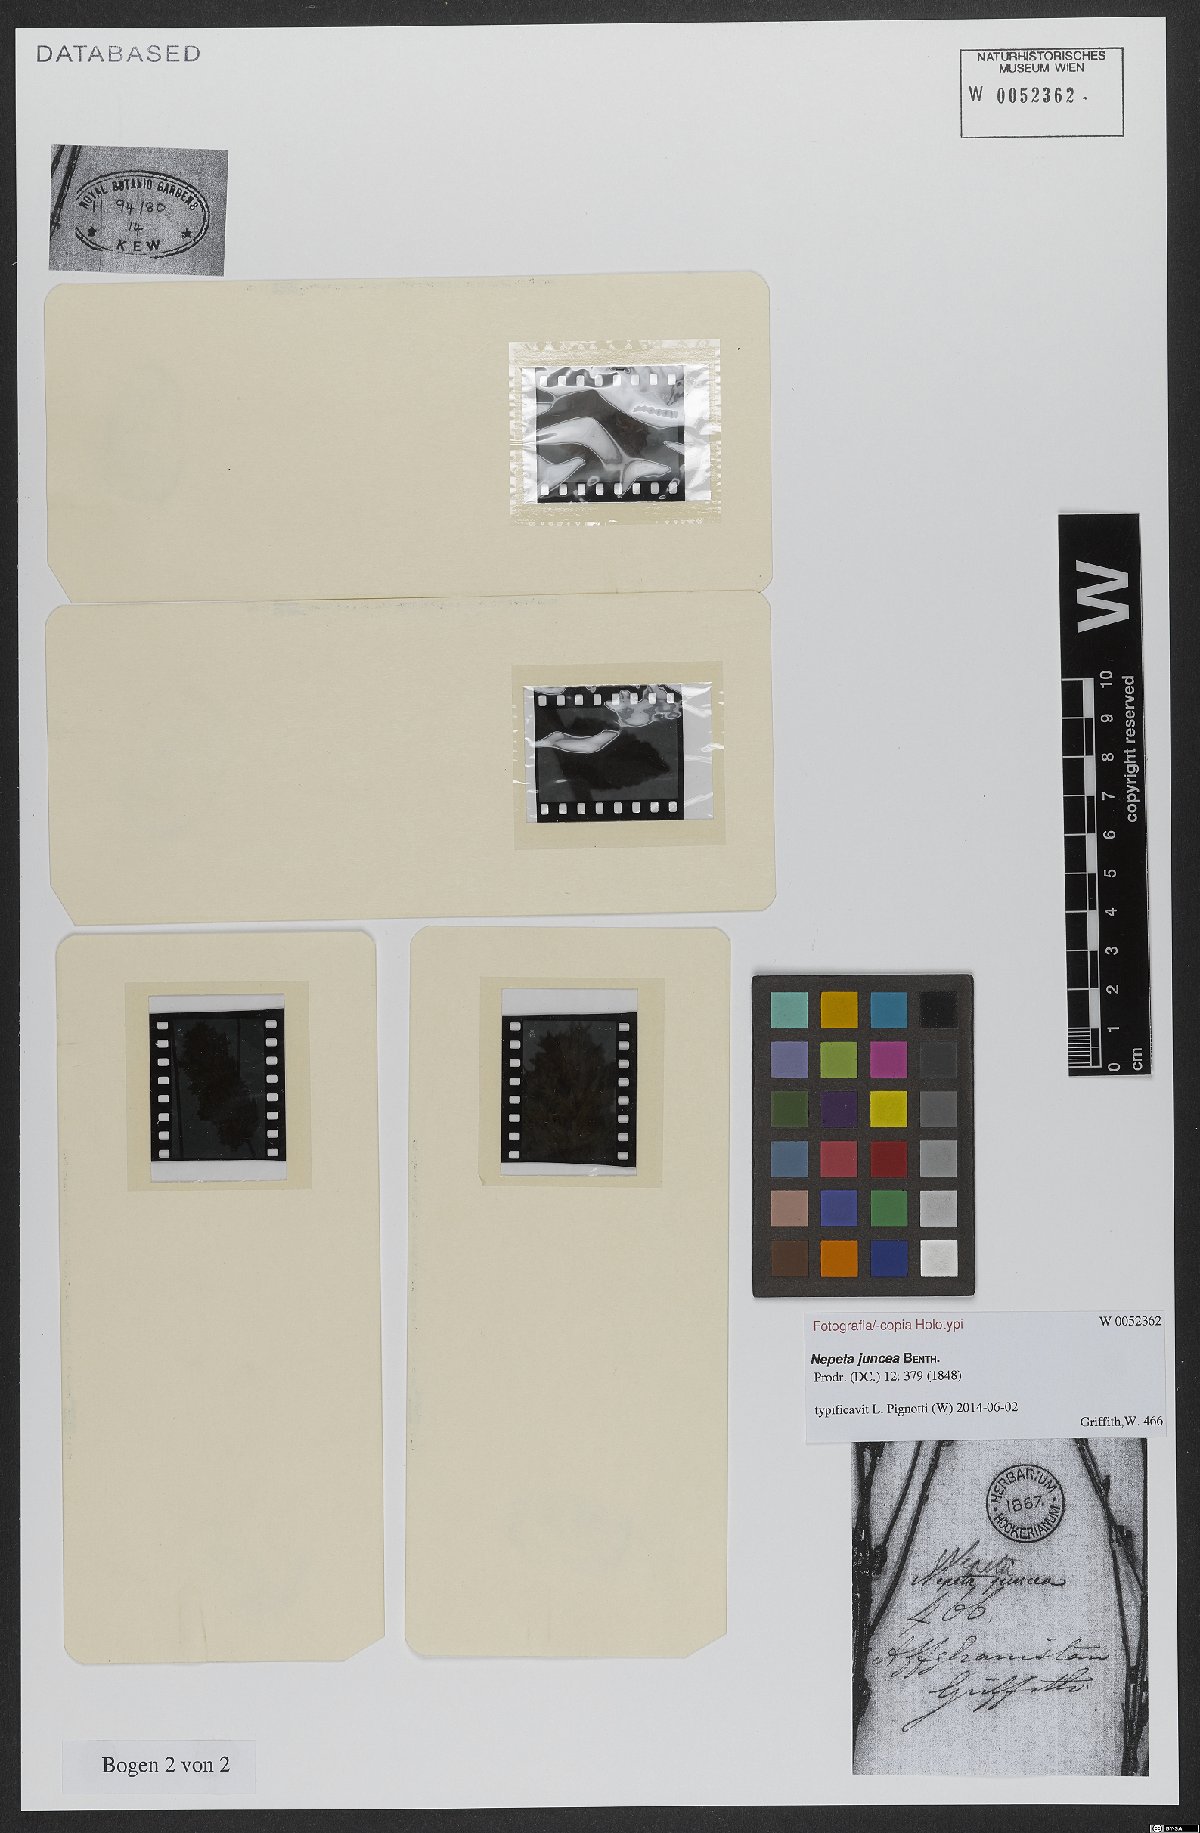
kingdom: Plantae
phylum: Tracheophyta
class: Magnoliopsida
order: Lamiales
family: Lamiaceae
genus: Nepeta
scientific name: Nepeta juncea
